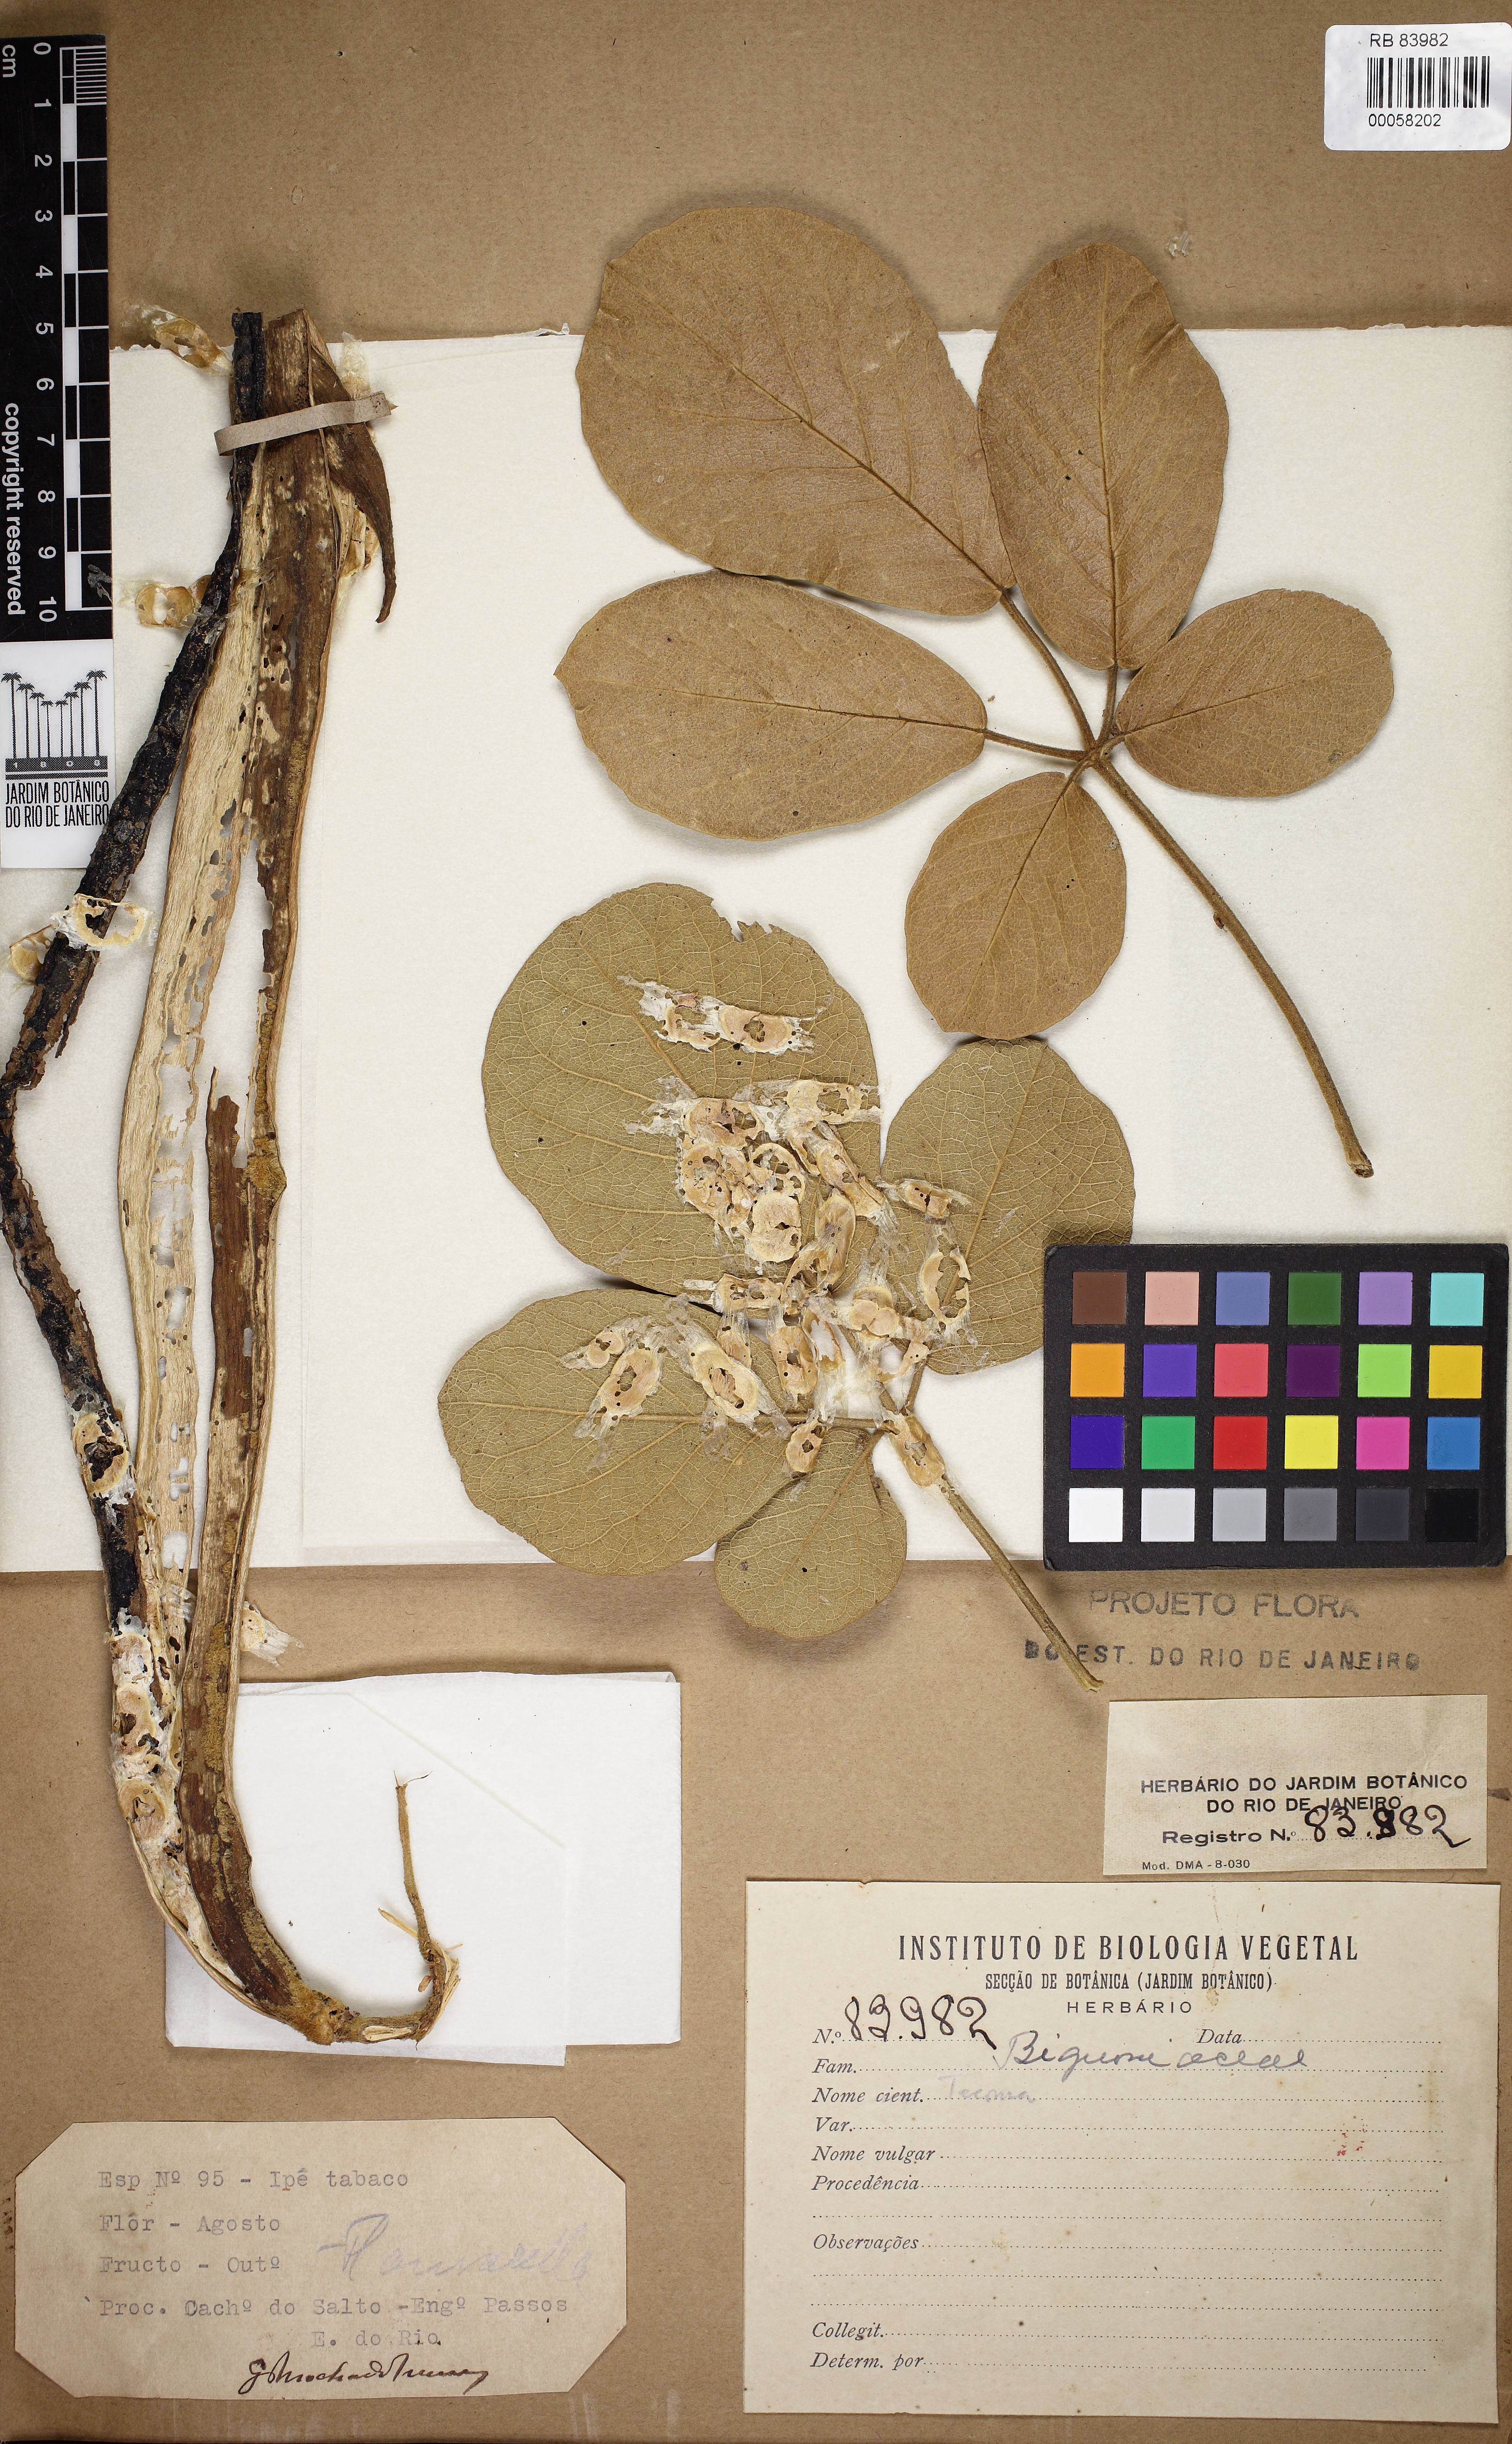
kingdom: Plantae
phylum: Tracheophyta
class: Magnoliopsida
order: Lamiales
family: Bignoniaceae
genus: Tecoma
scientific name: Tecoma
